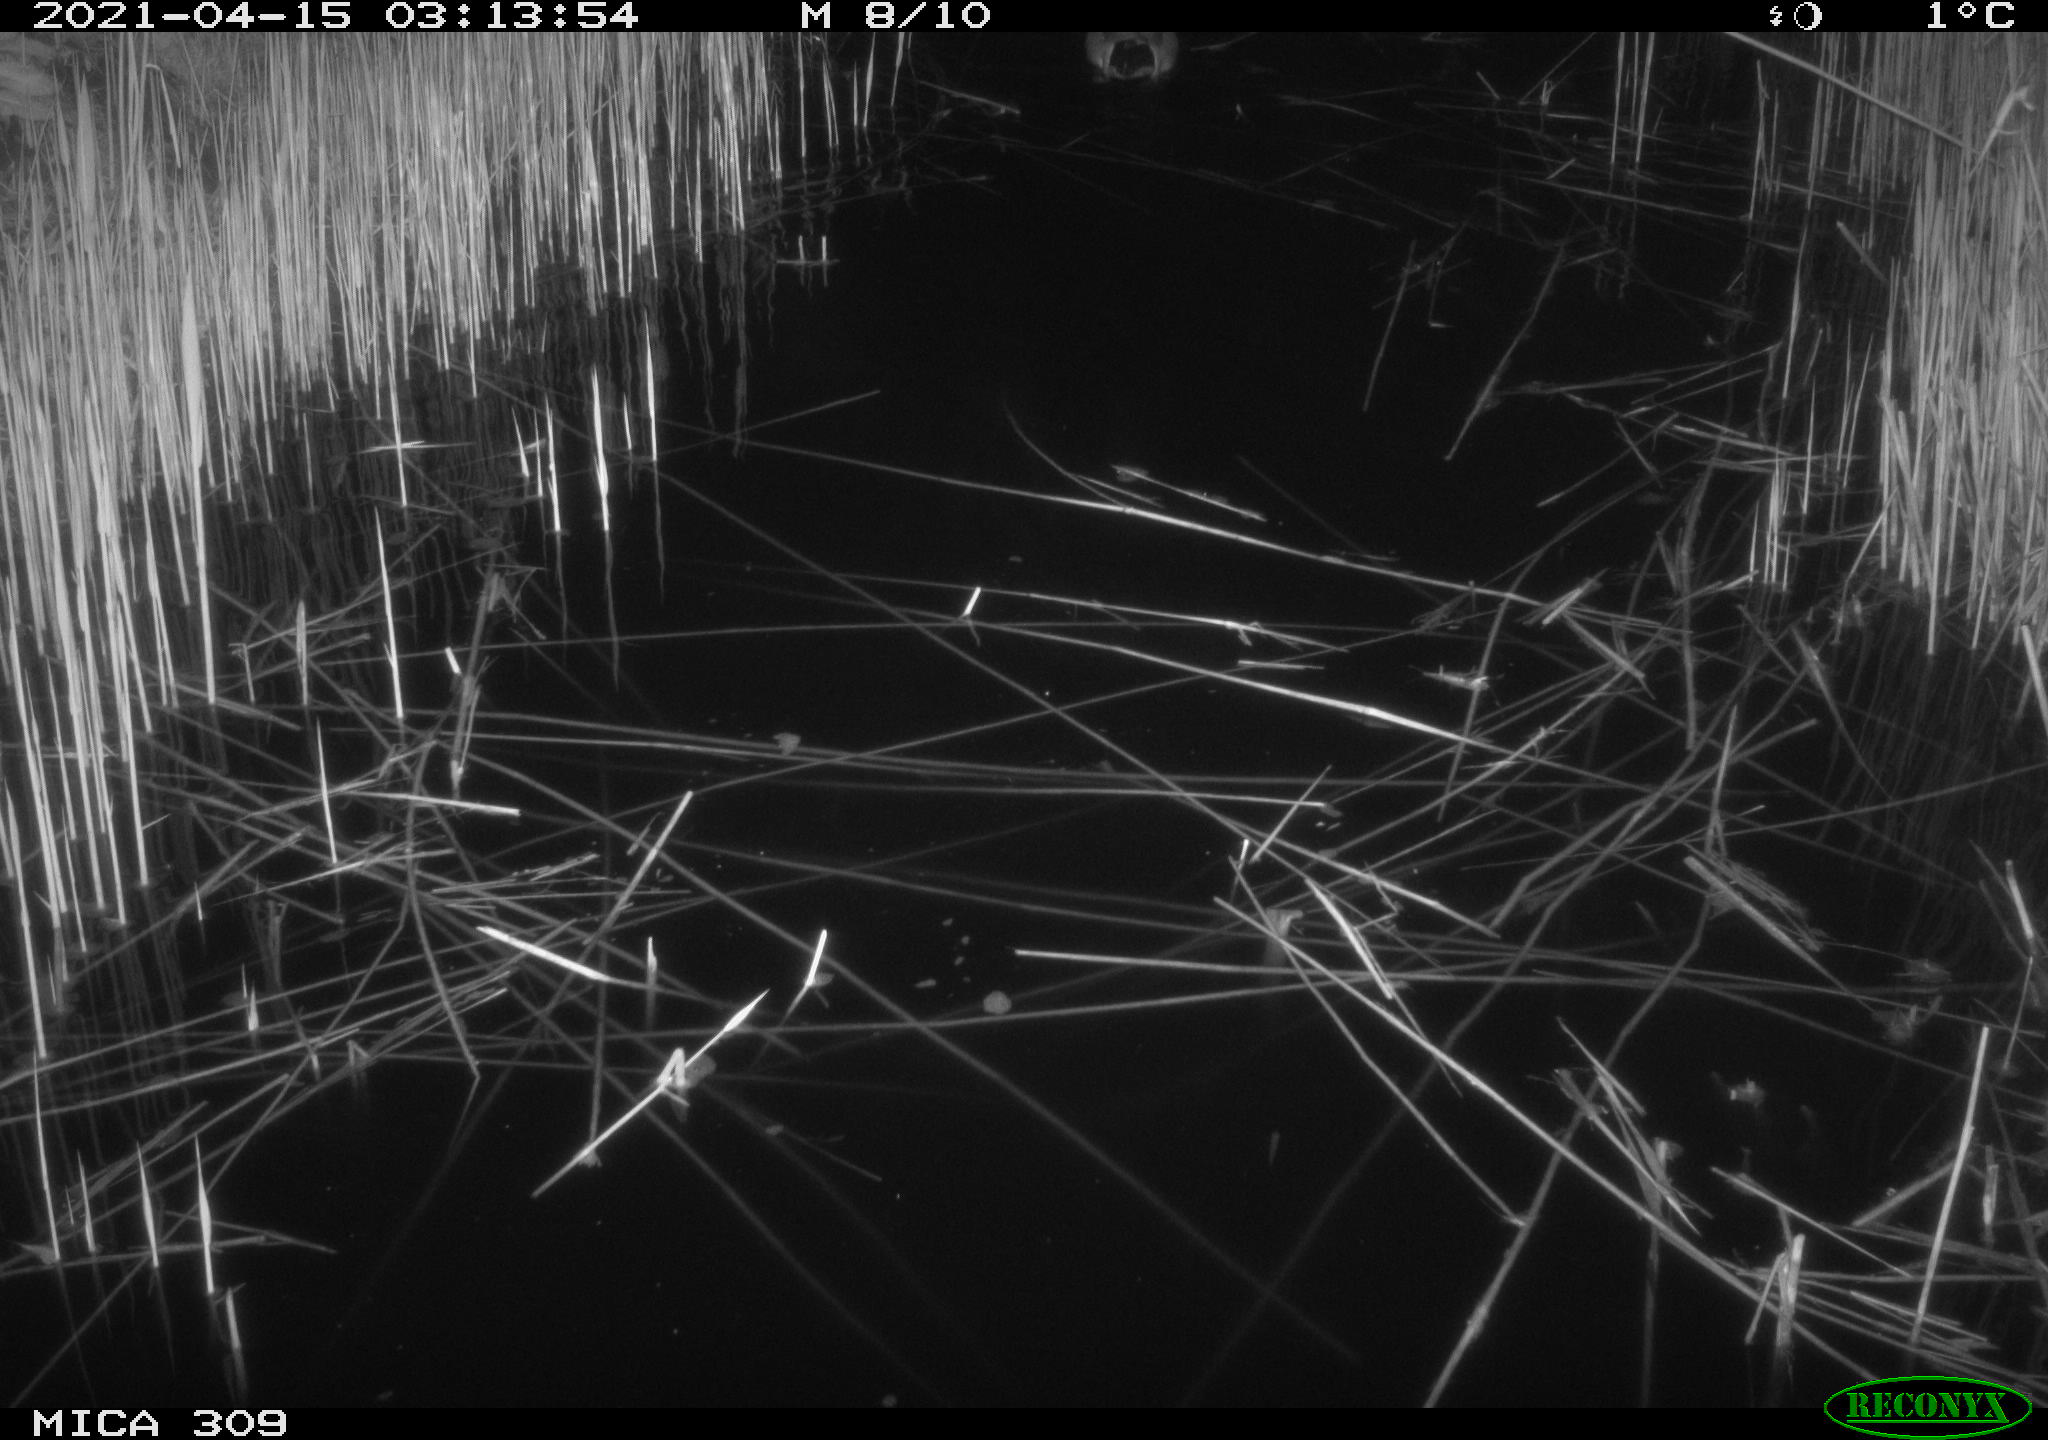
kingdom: Animalia
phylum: Chordata
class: Aves
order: Anseriformes
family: Anatidae
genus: Anas
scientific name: Anas platyrhynchos
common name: Mallard
